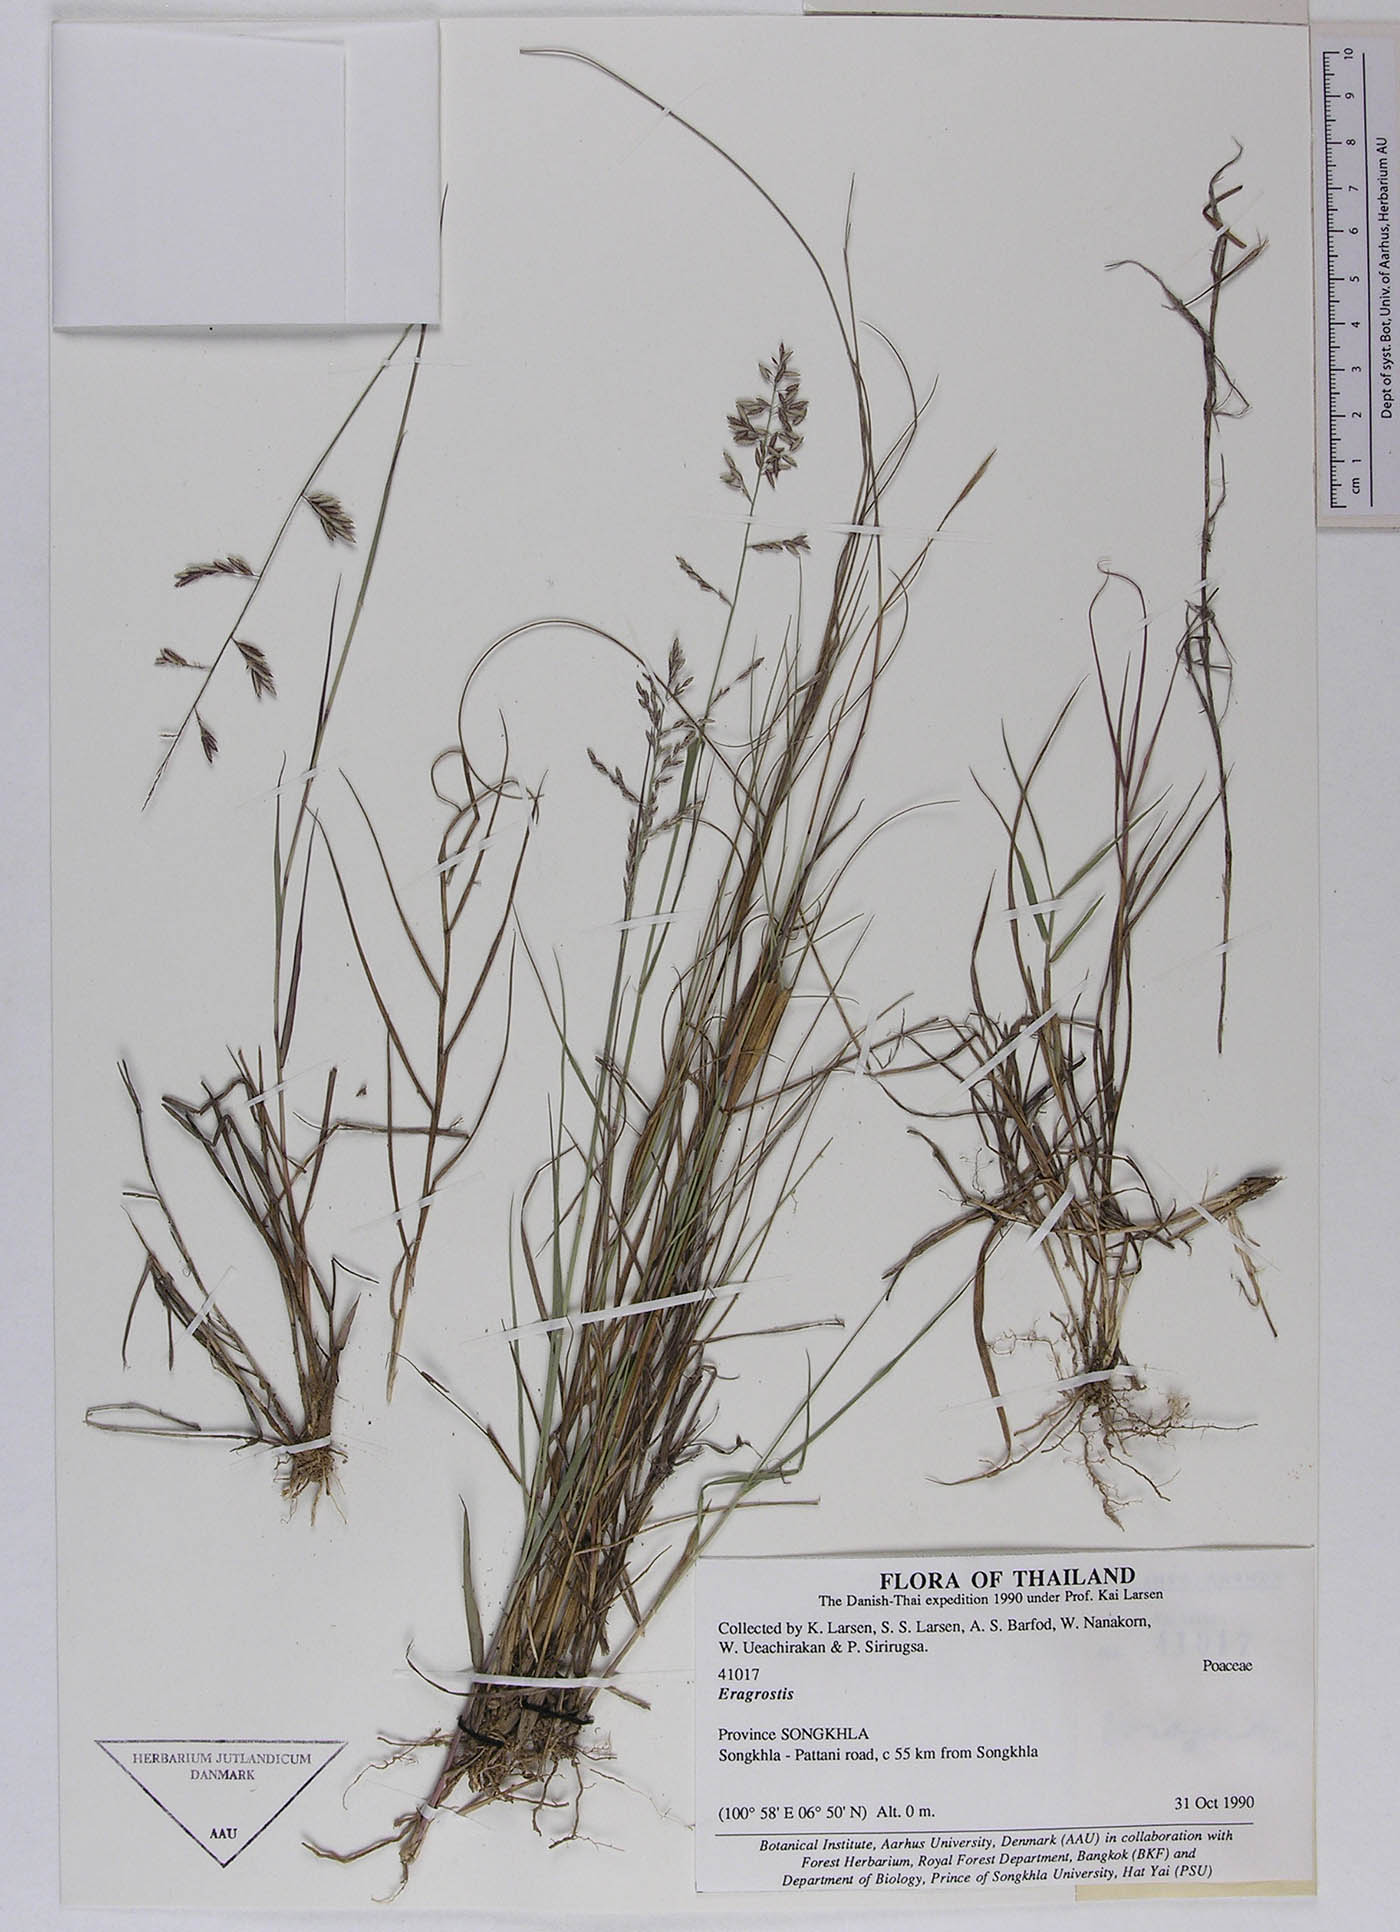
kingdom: Plantae
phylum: Tracheophyta
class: Liliopsida
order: Poales
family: Poaceae
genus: Eragrostis
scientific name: Eragrostis brownii
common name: Lovegrass
